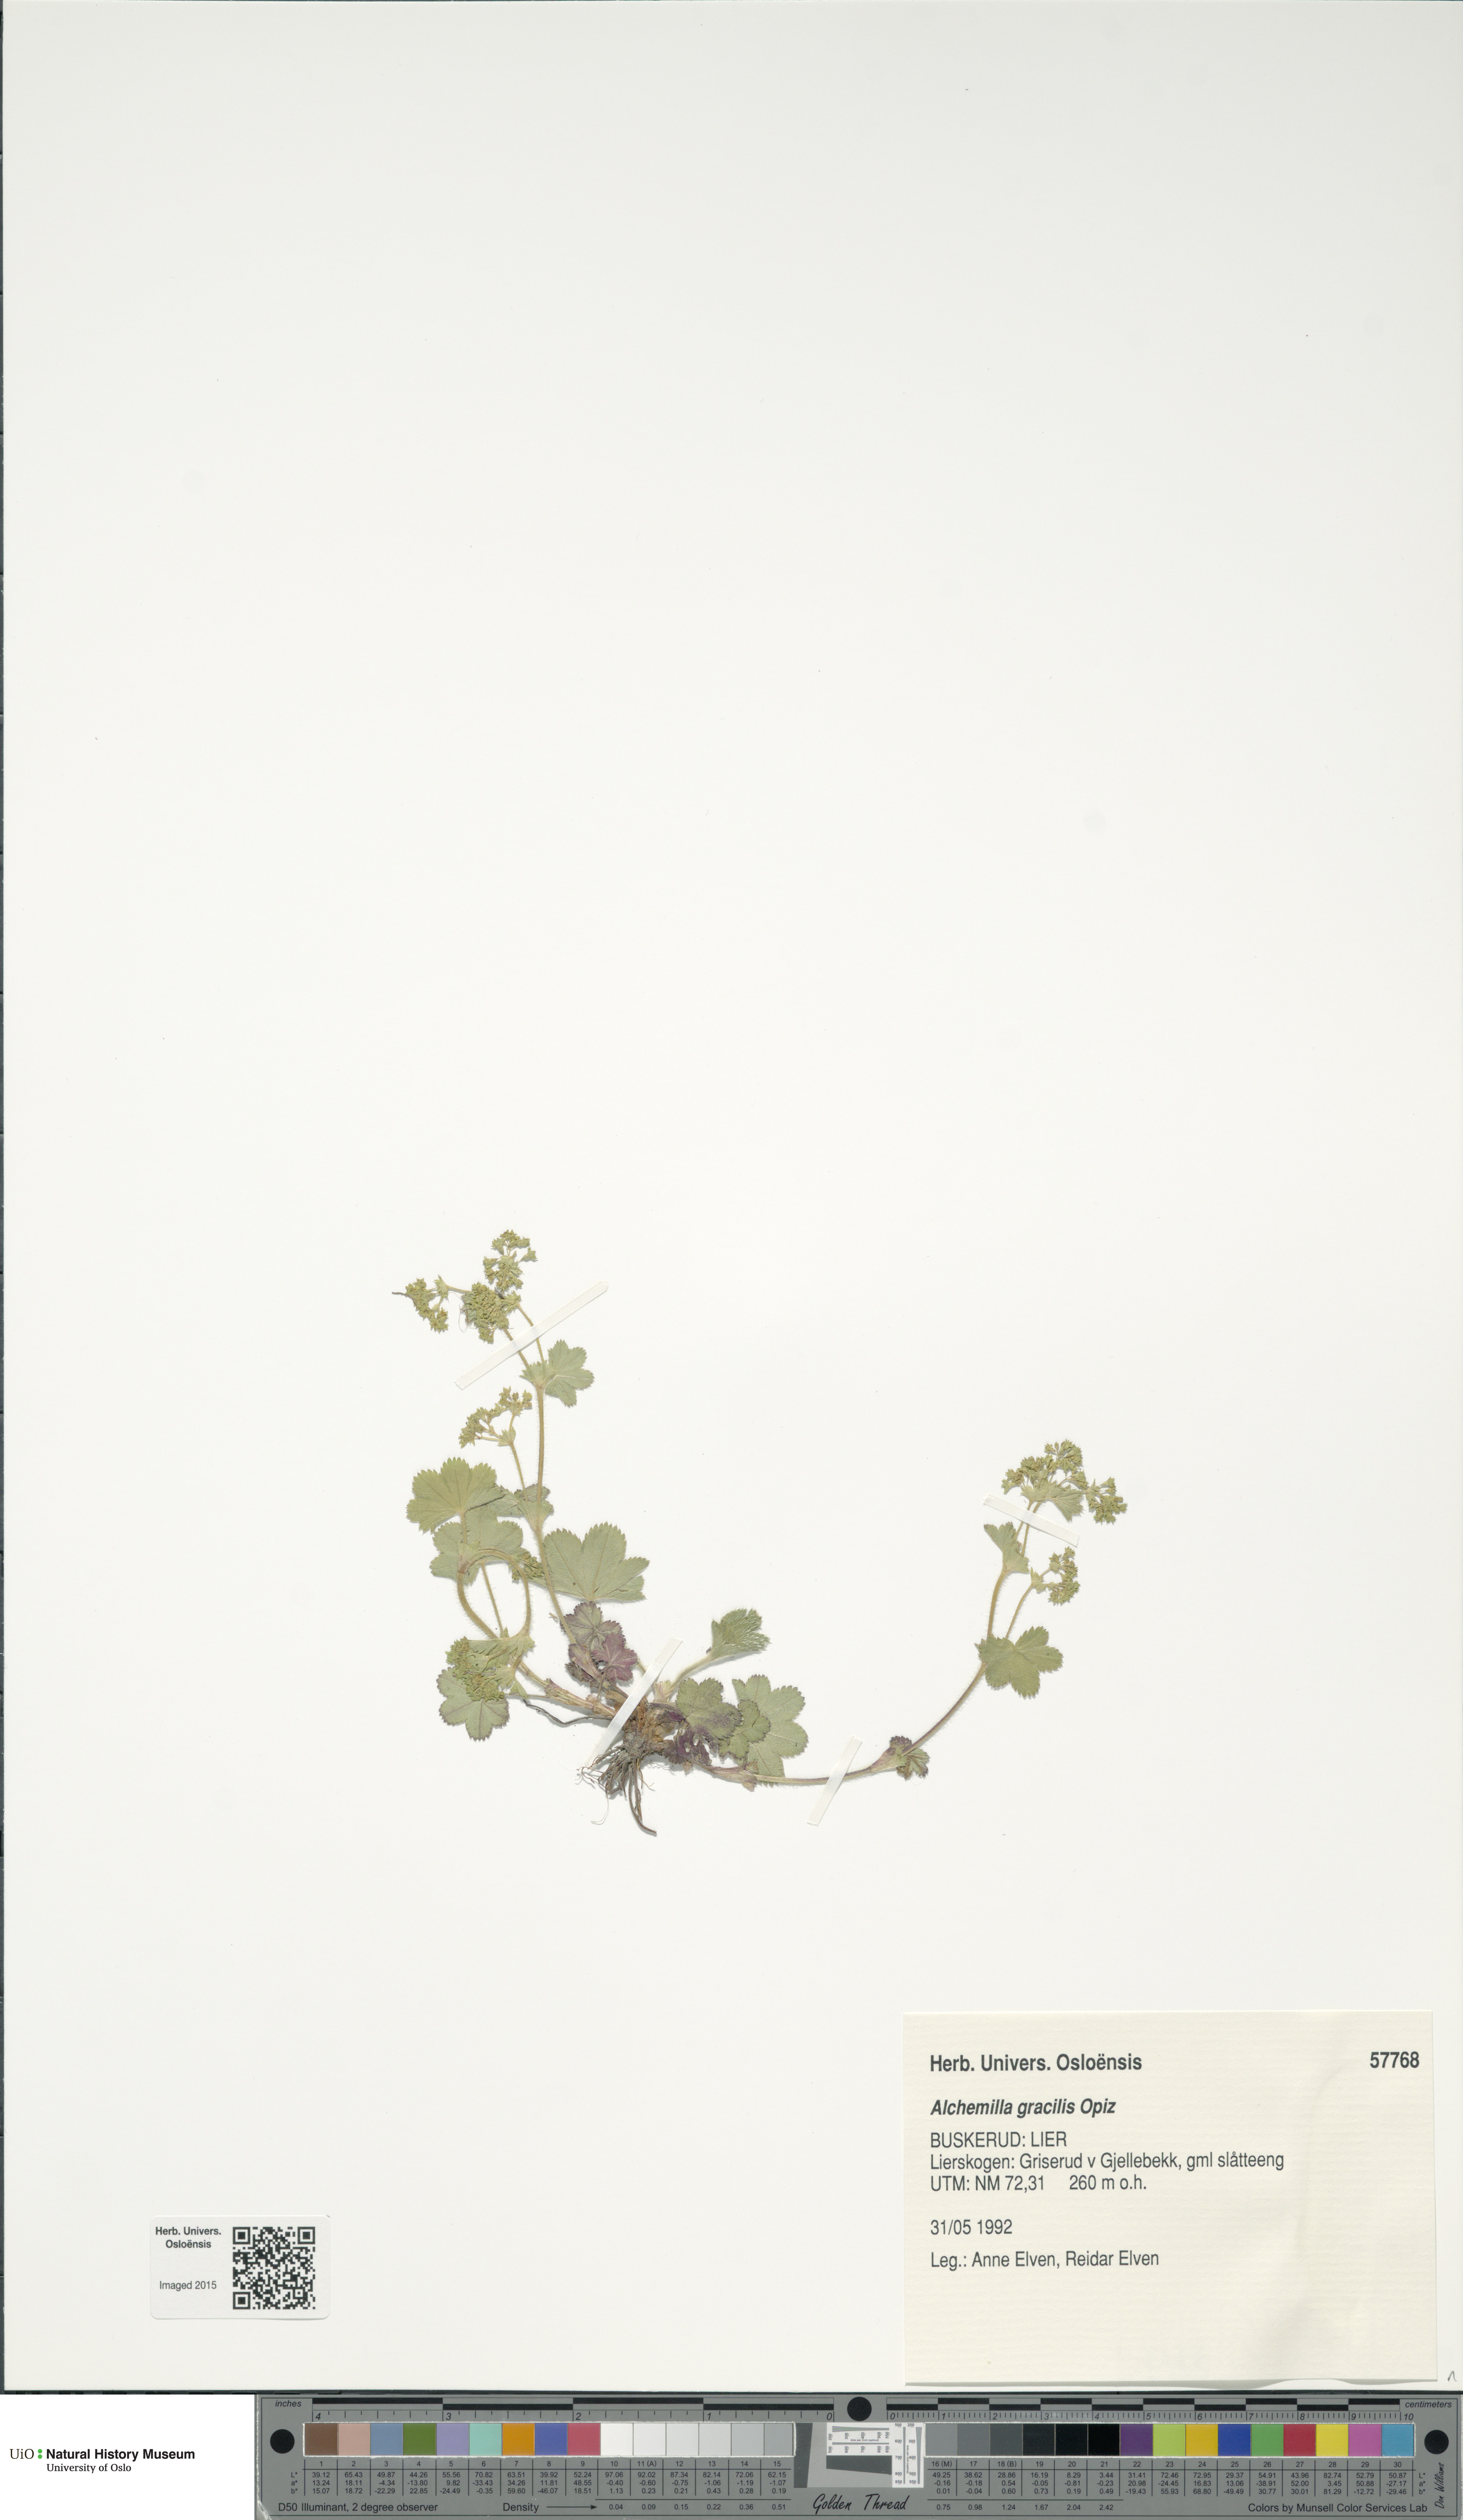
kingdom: Plantae
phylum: Tracheophyta
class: Magnoliopsida
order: Rosales
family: Rosaceae
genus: Alchemilla
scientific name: Alchemilla micans
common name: Gleaming lady's mantle
